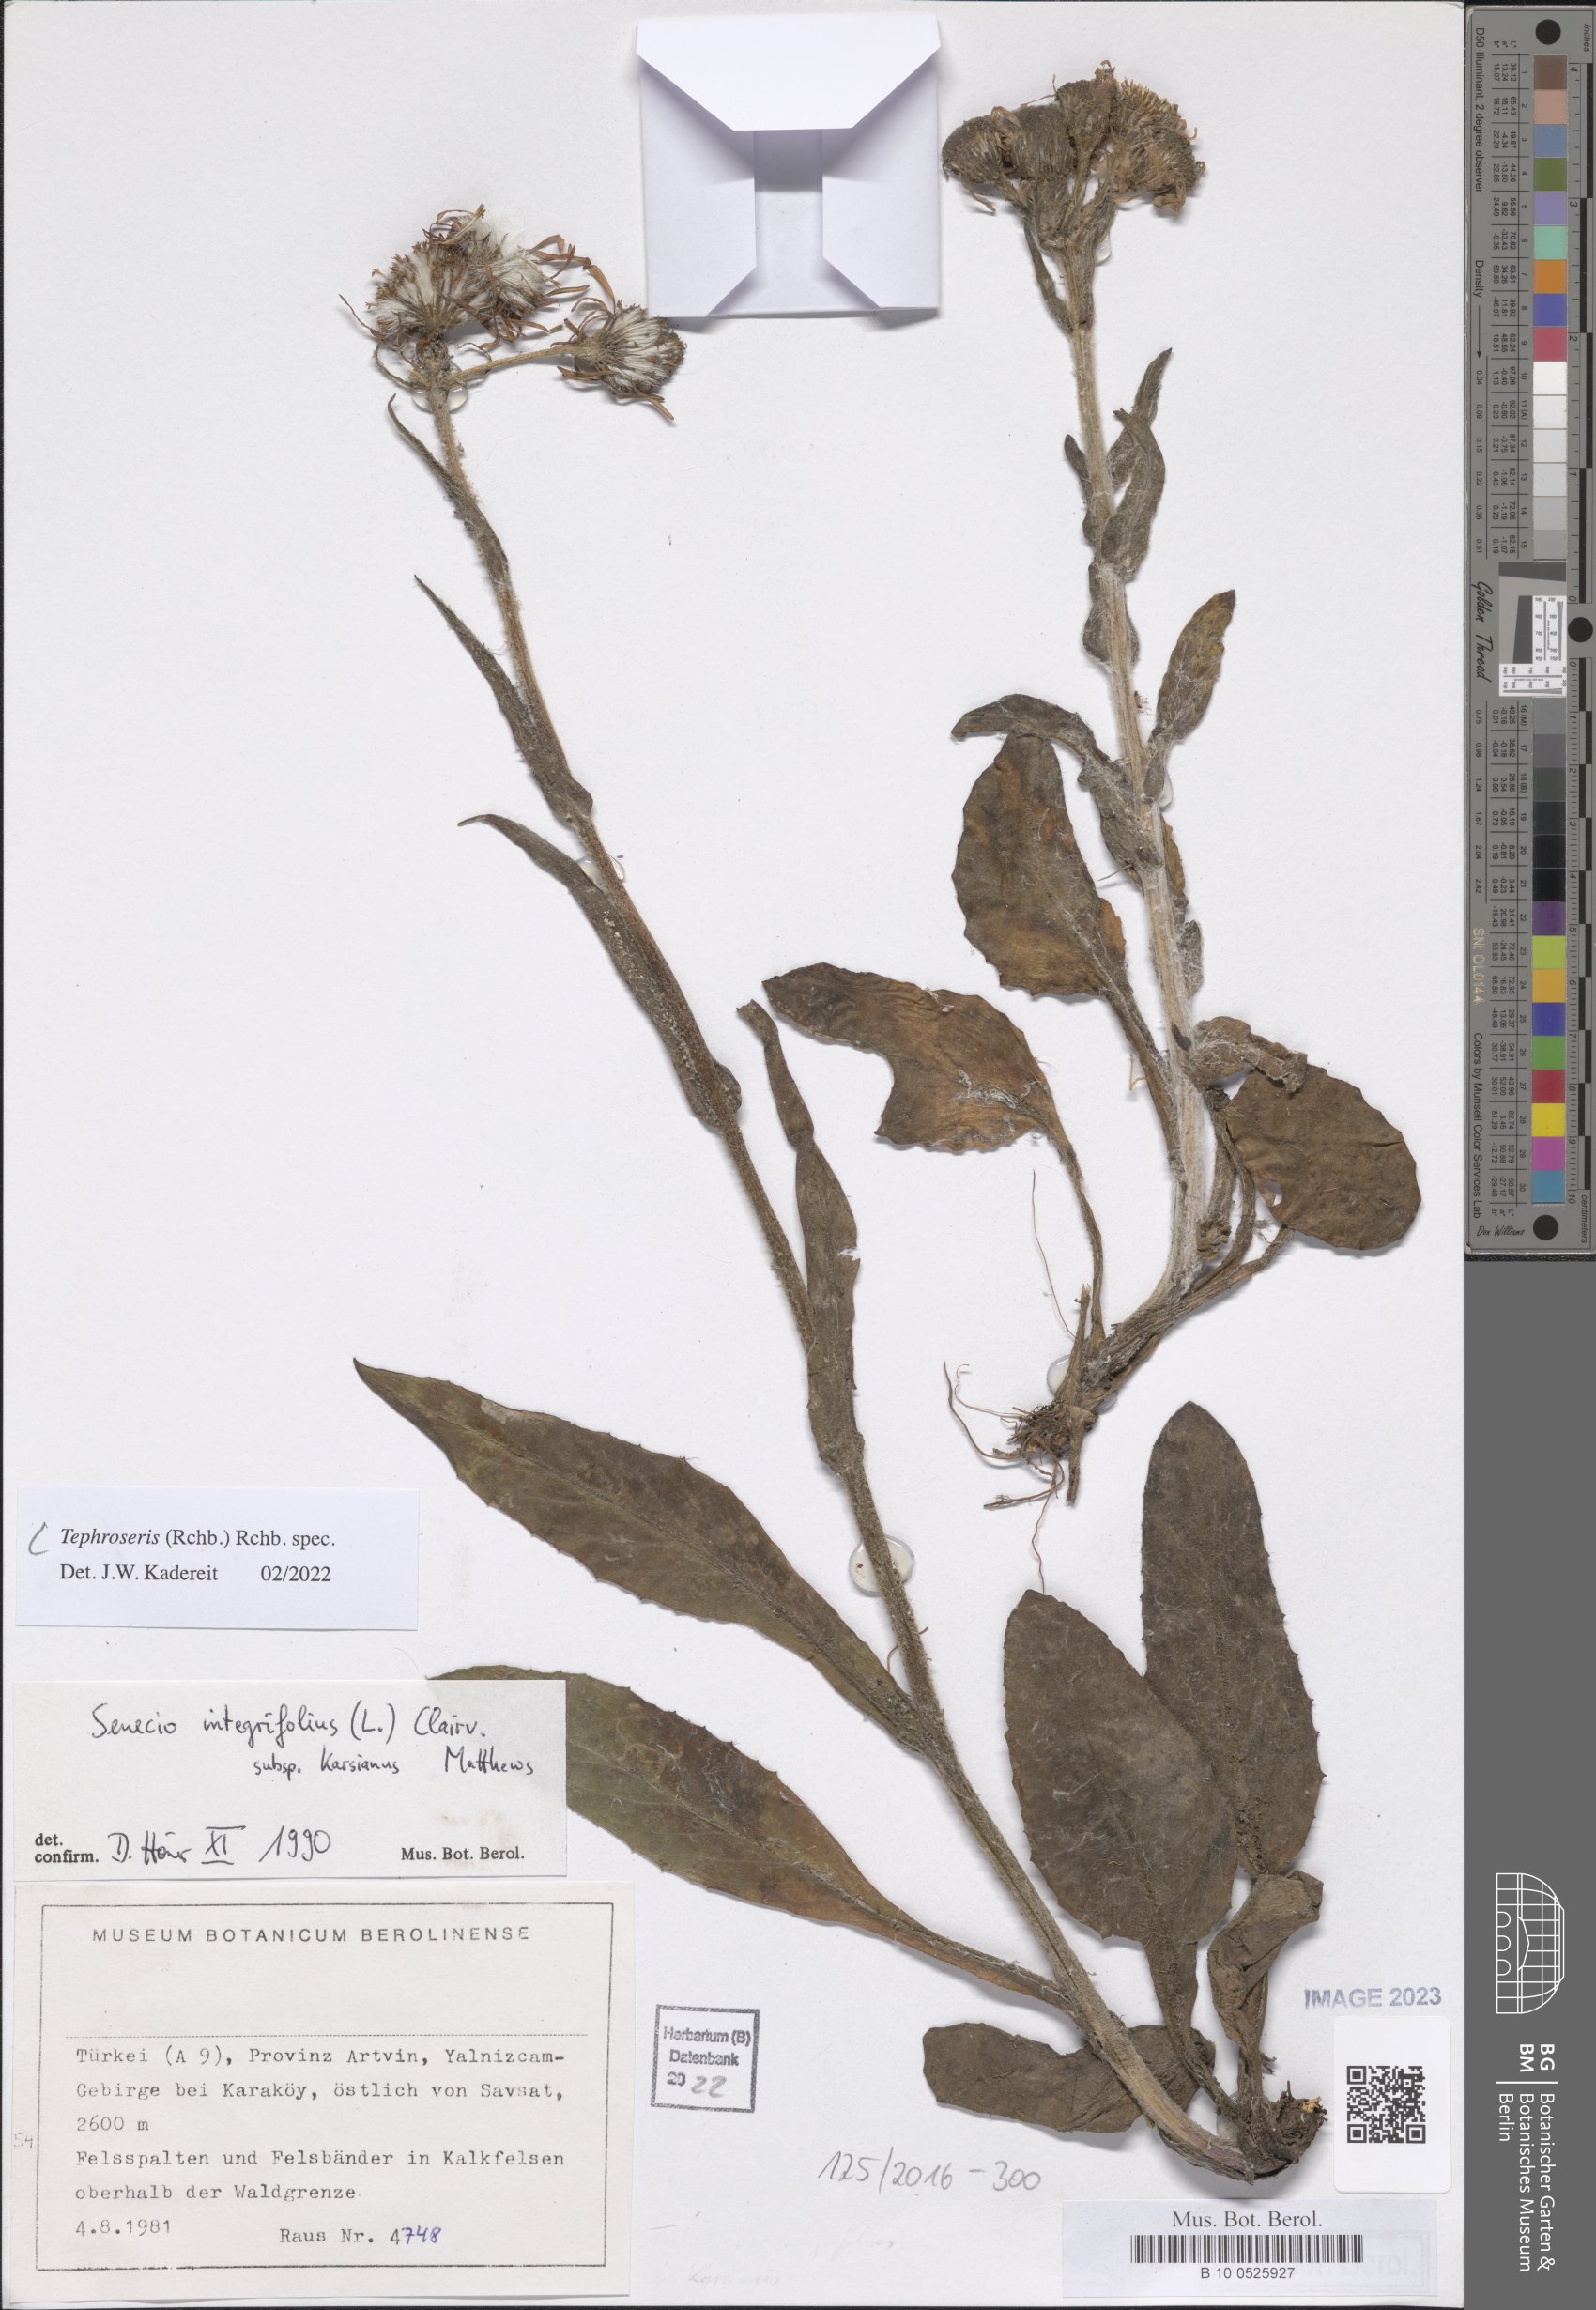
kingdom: Plantae
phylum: Tracheophyta
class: Magnoliopsida
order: Asterales
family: Asteraceae
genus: Tephroseris
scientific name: Tephroseris
